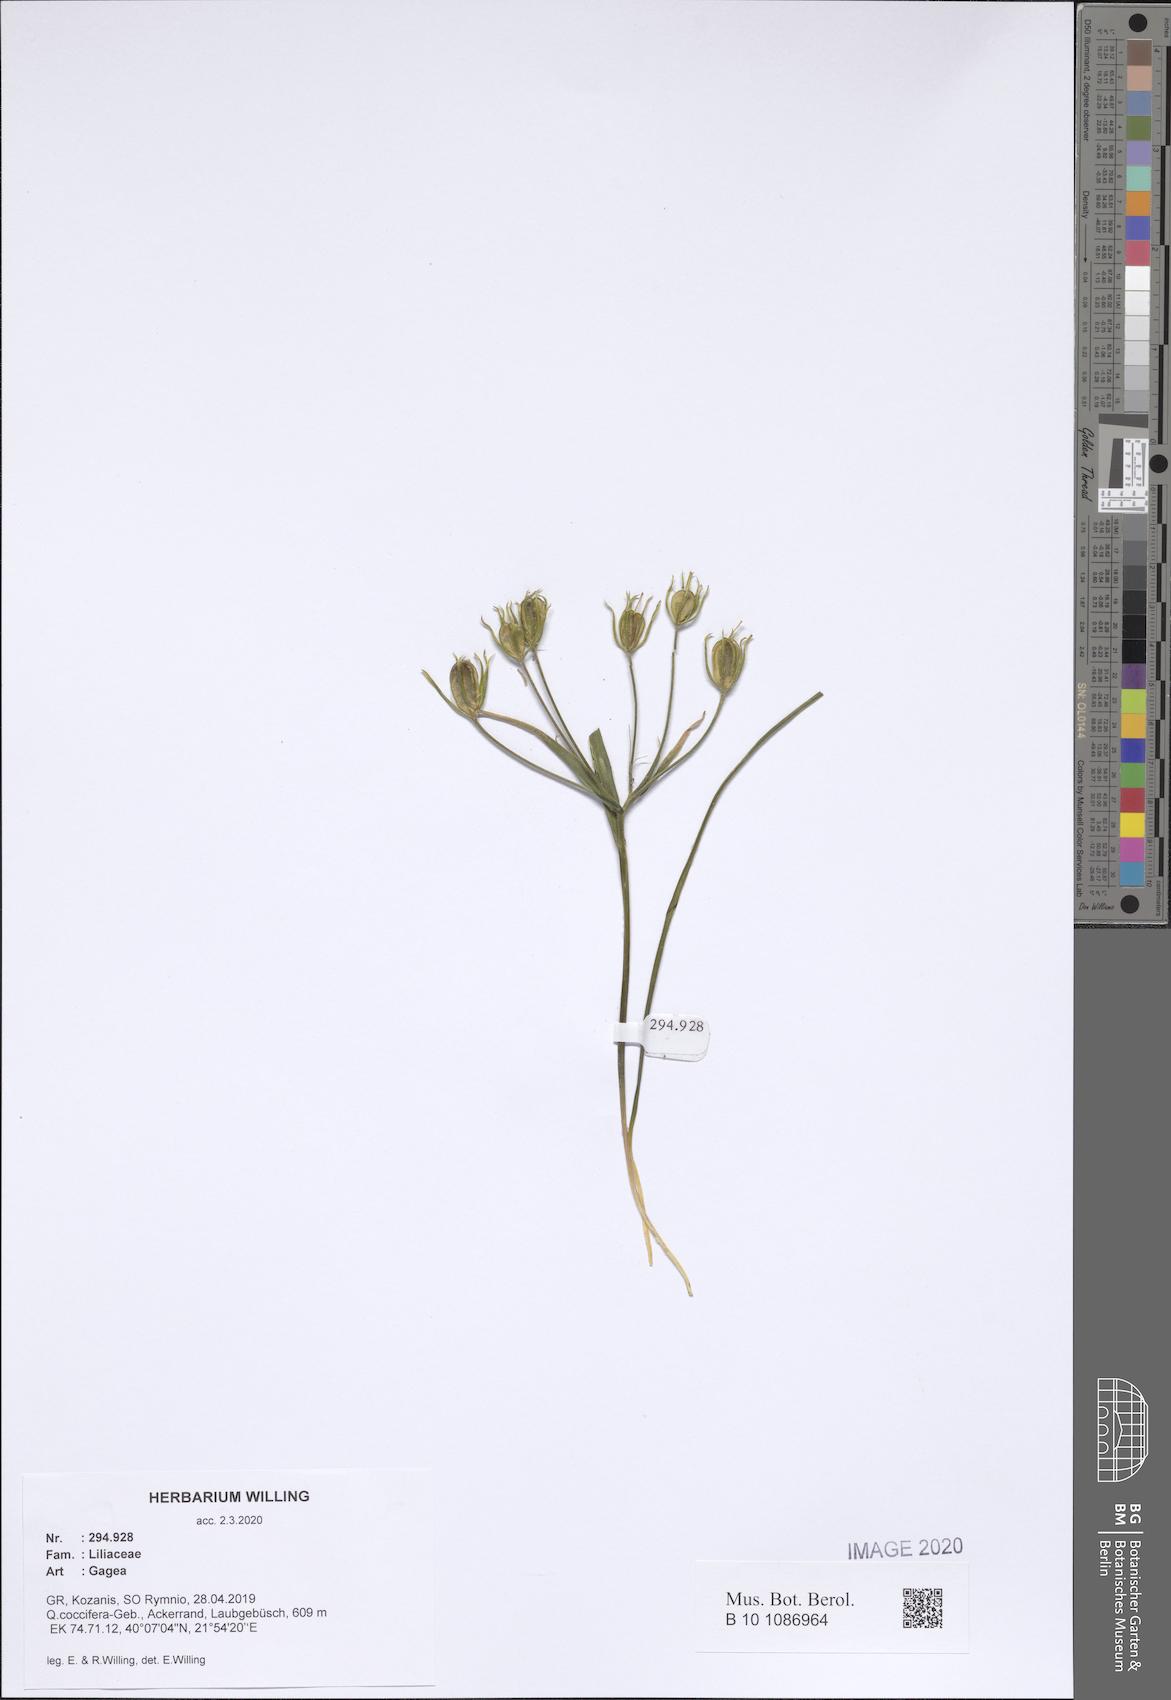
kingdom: Plantae
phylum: Tracheophyta
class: Liliopsida
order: Liliales
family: Liliaceae
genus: Gagea
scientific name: Gagea
